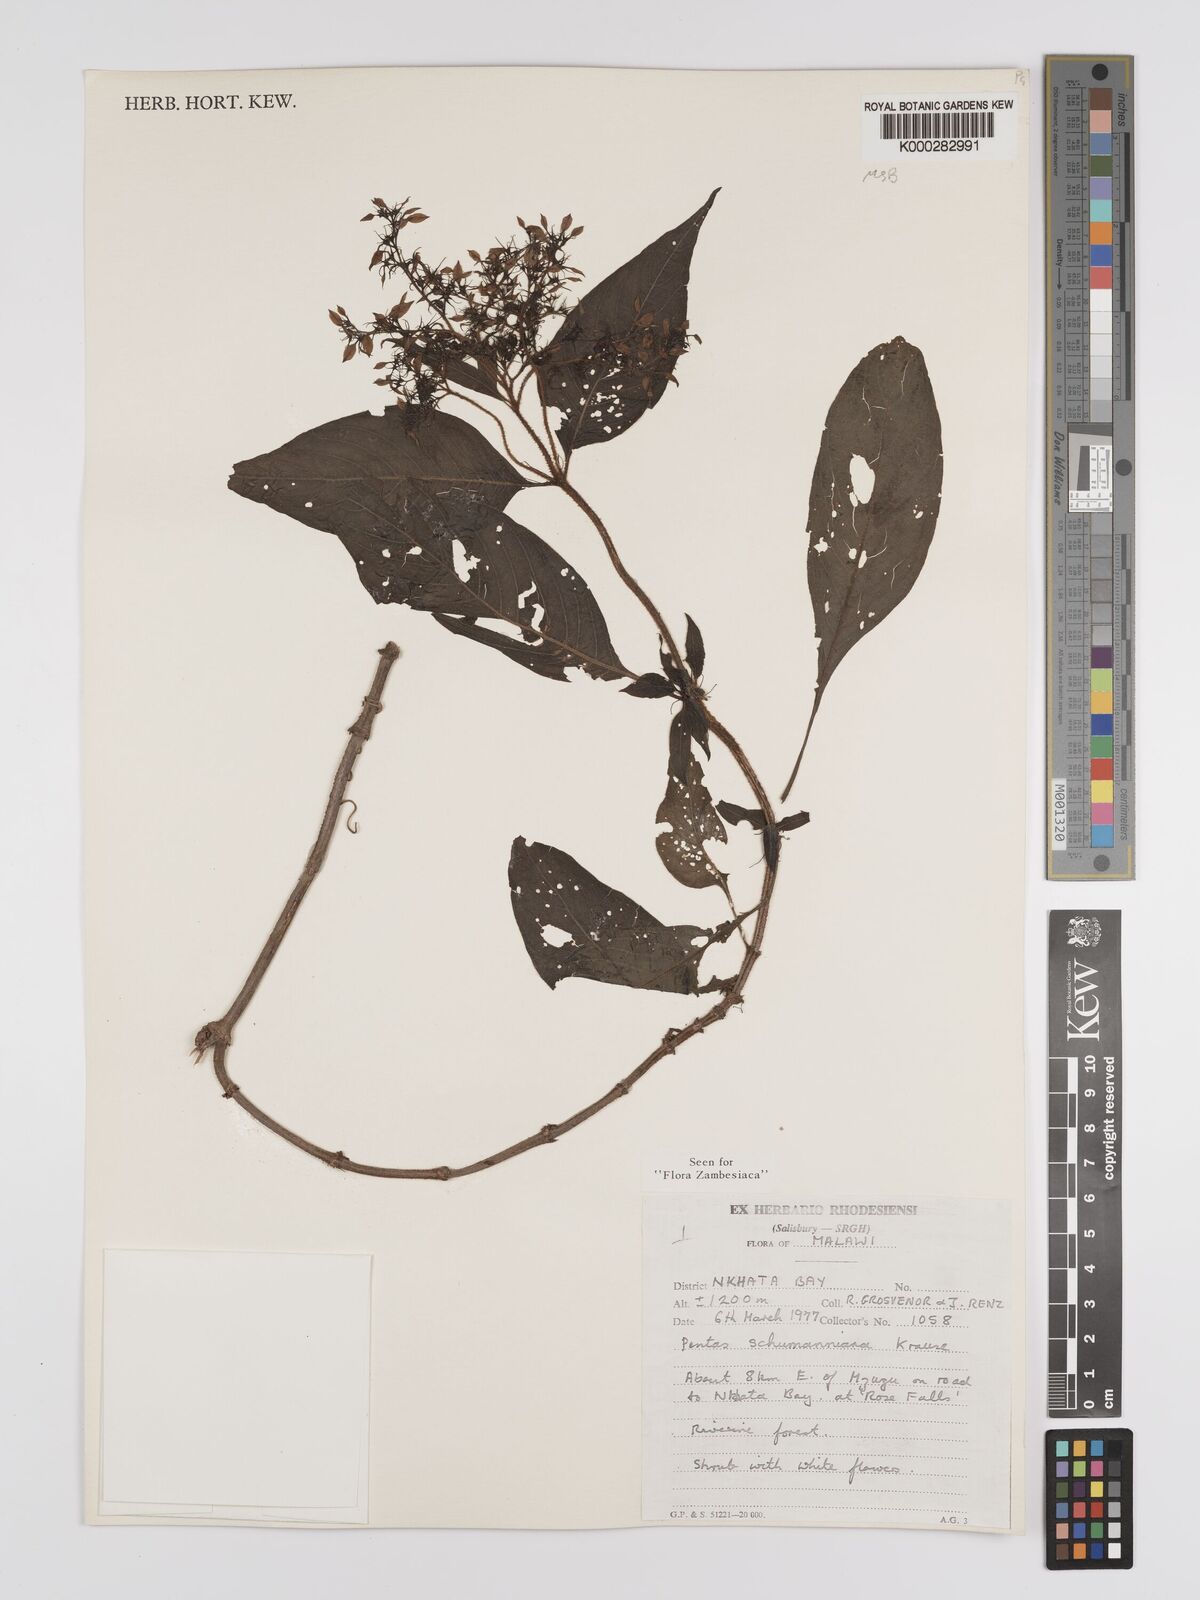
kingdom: Plantae
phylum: Tracheophyta
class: Magnoliopsida
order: Gentianales
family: Rubiaceae
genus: Phyllopentas
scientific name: Phyllopentas schumanniana
